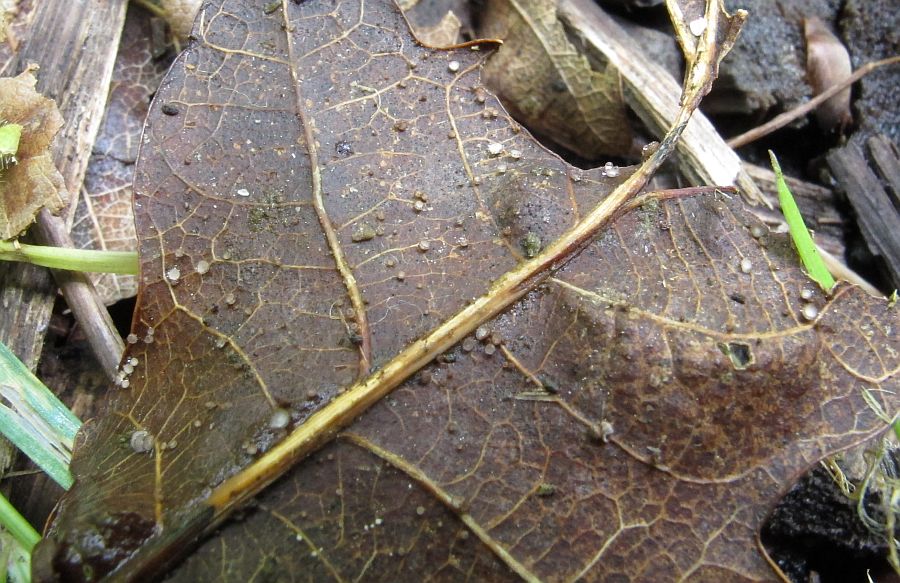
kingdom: Fungi
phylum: Ascomycota
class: Leotiomycetes
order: Helotiales
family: Lachnaceae
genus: Brunnipila
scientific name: Brunnipila brunneola
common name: læderbrun frynseskive
